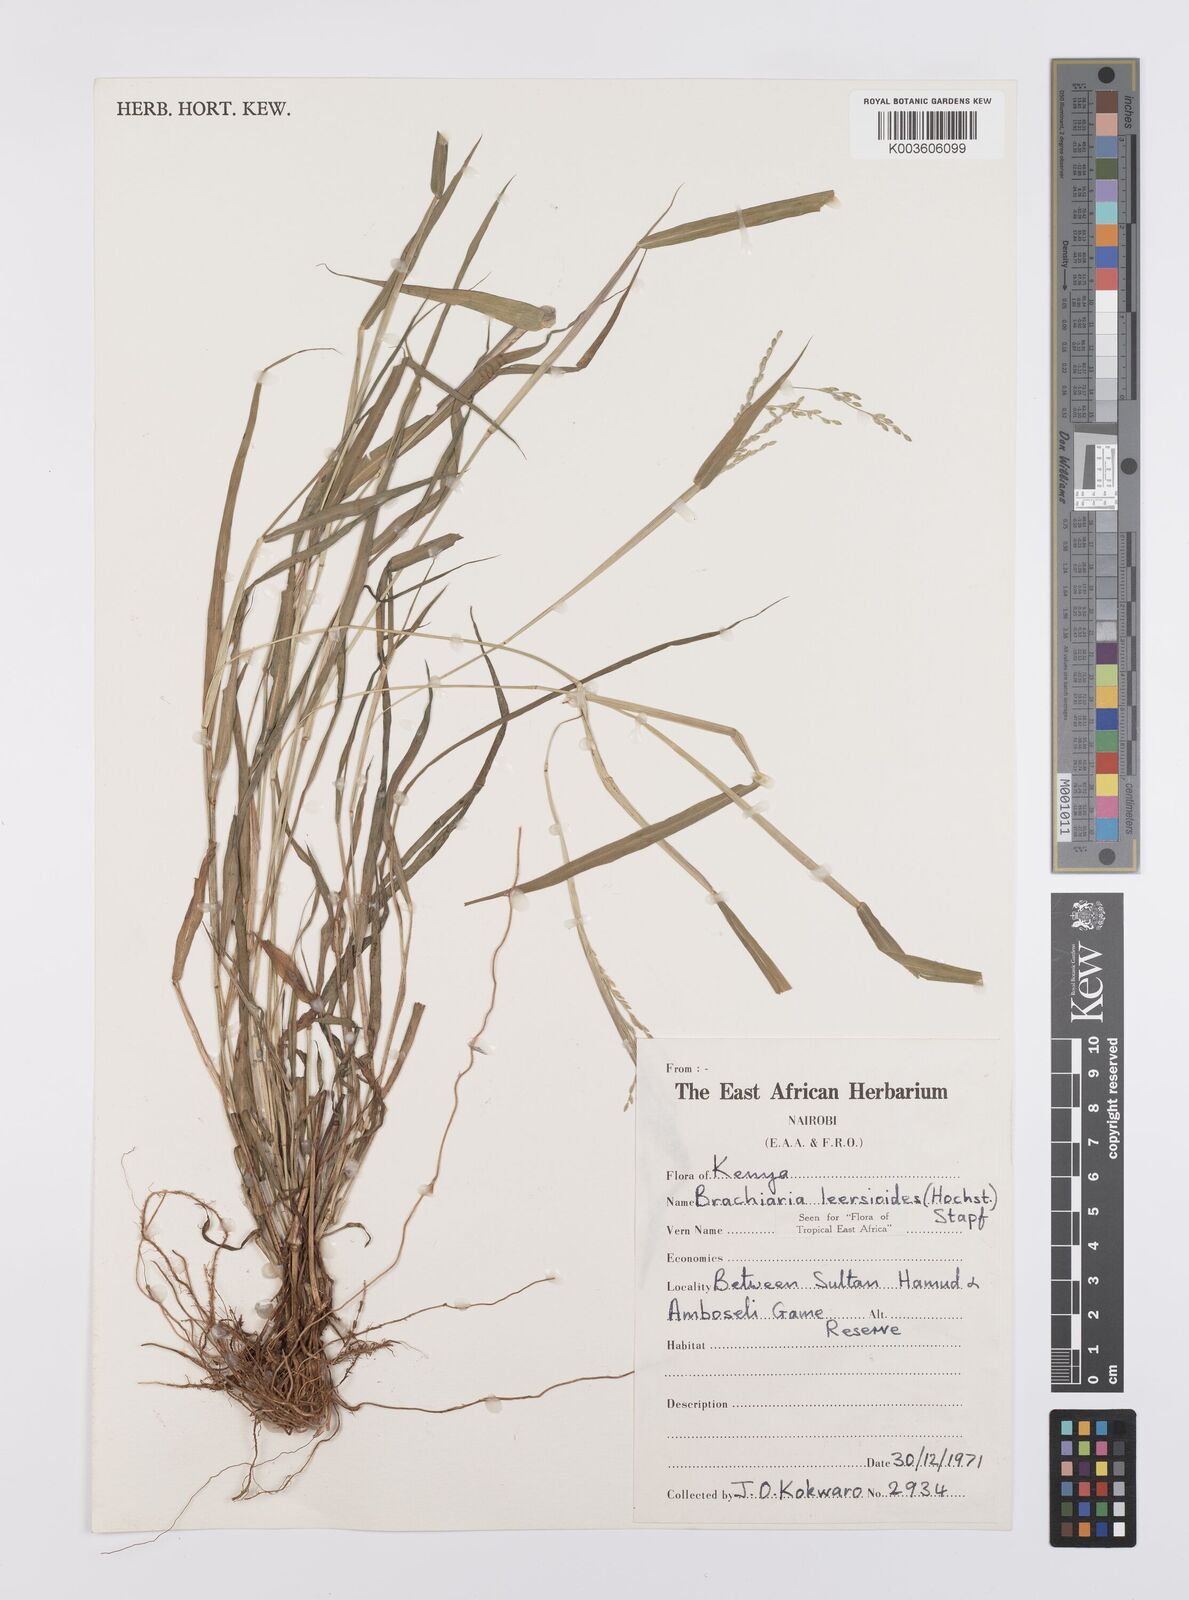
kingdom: Plantae
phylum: Tracheophyta
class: Liliopsida
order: Poales
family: Poaceae
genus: Urochloa
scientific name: Urochloa leersioides
